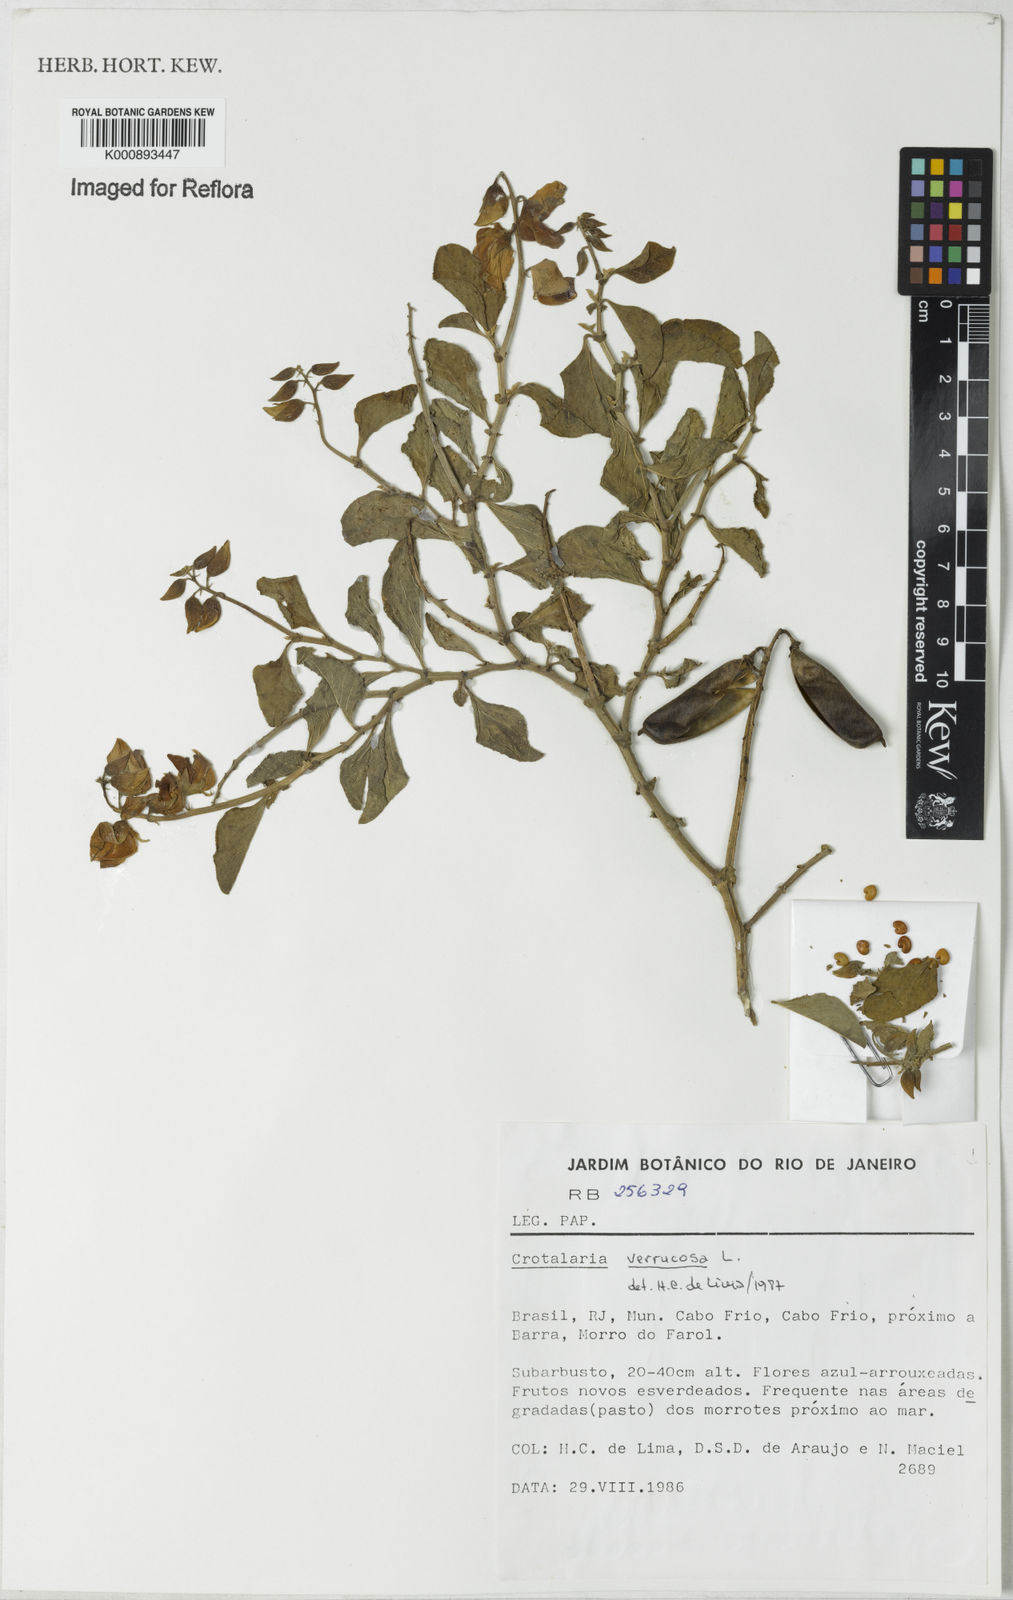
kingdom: Plantae
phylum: Tracheophyta
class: Magnoliopsida
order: Fabales
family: Fabaceae
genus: Crotalaria
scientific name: Crotalaria verrucosa
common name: Blue rattlesnake
